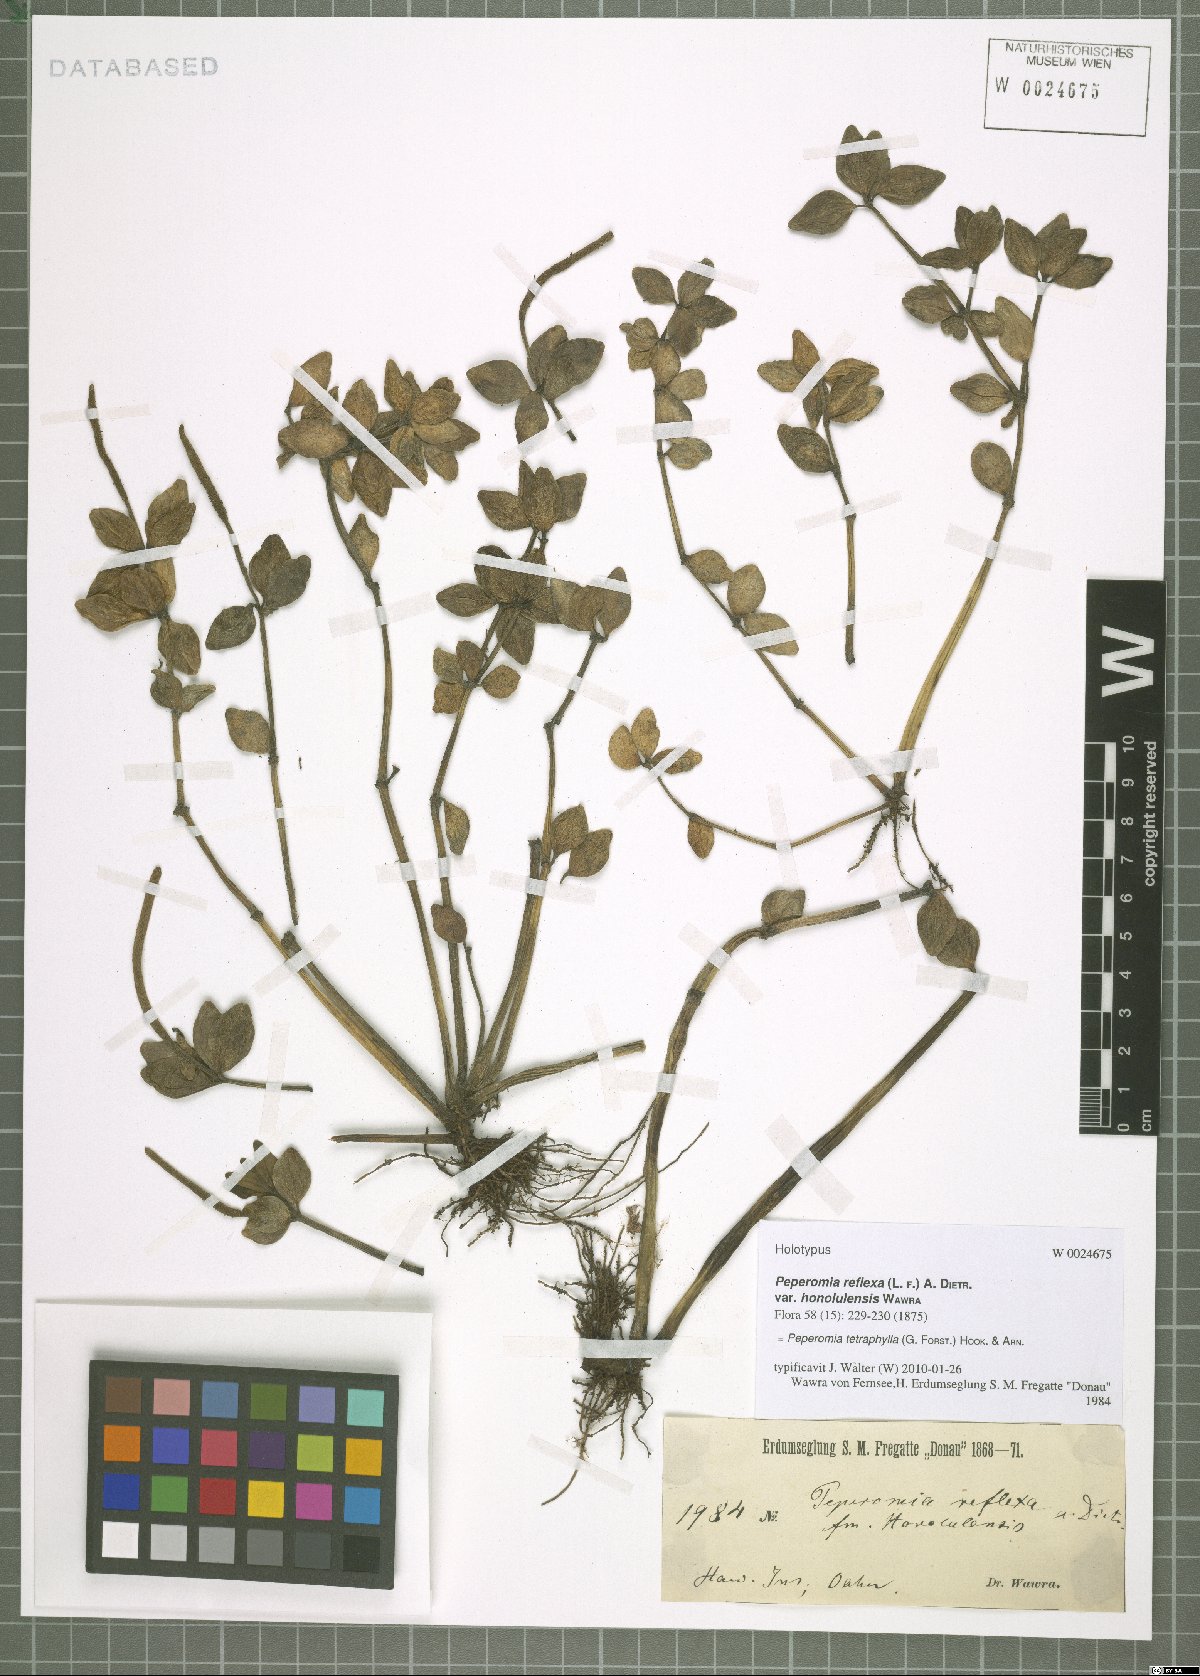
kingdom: Plantae
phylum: Tracheophyta
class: Magnoliopsida
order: Piperales
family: Piperaceae
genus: Peperomia
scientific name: Peperomia tetraphylla
